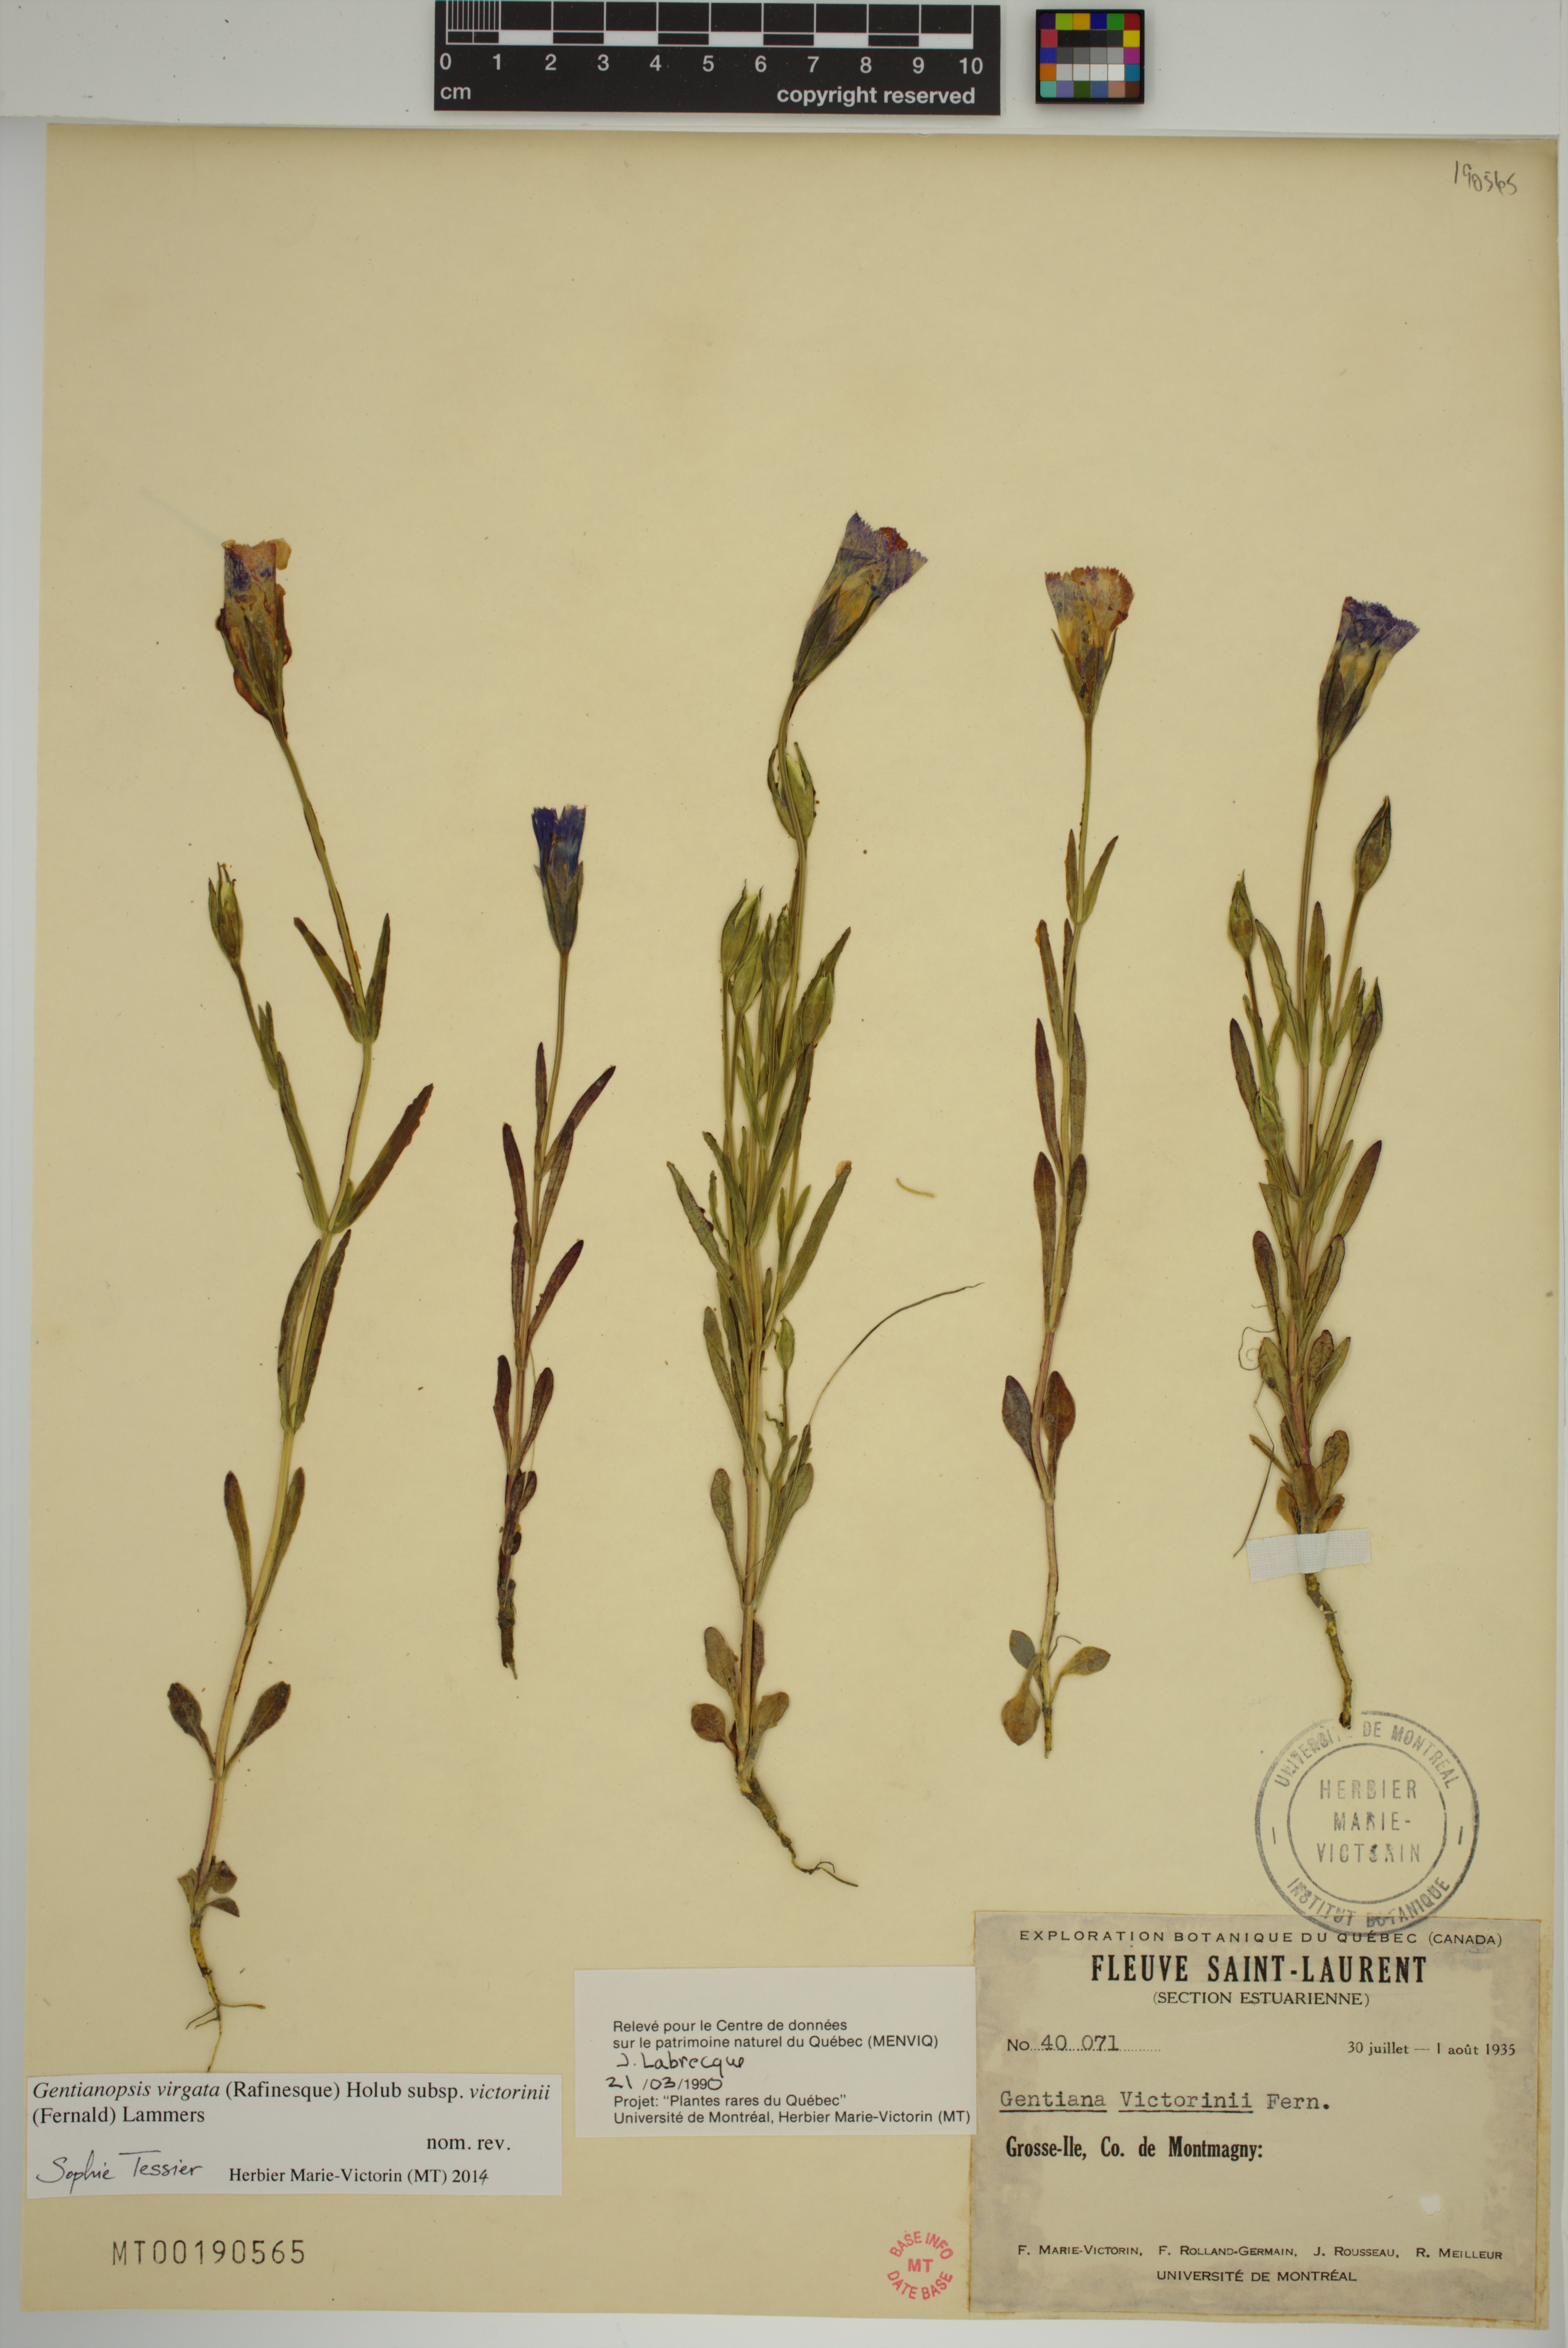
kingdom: Plantae
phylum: Tracheophyta
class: Magnoliopsida
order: Gentianales
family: Gentianaceae
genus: Gentianopsis
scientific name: Gentianopsis victorinii
